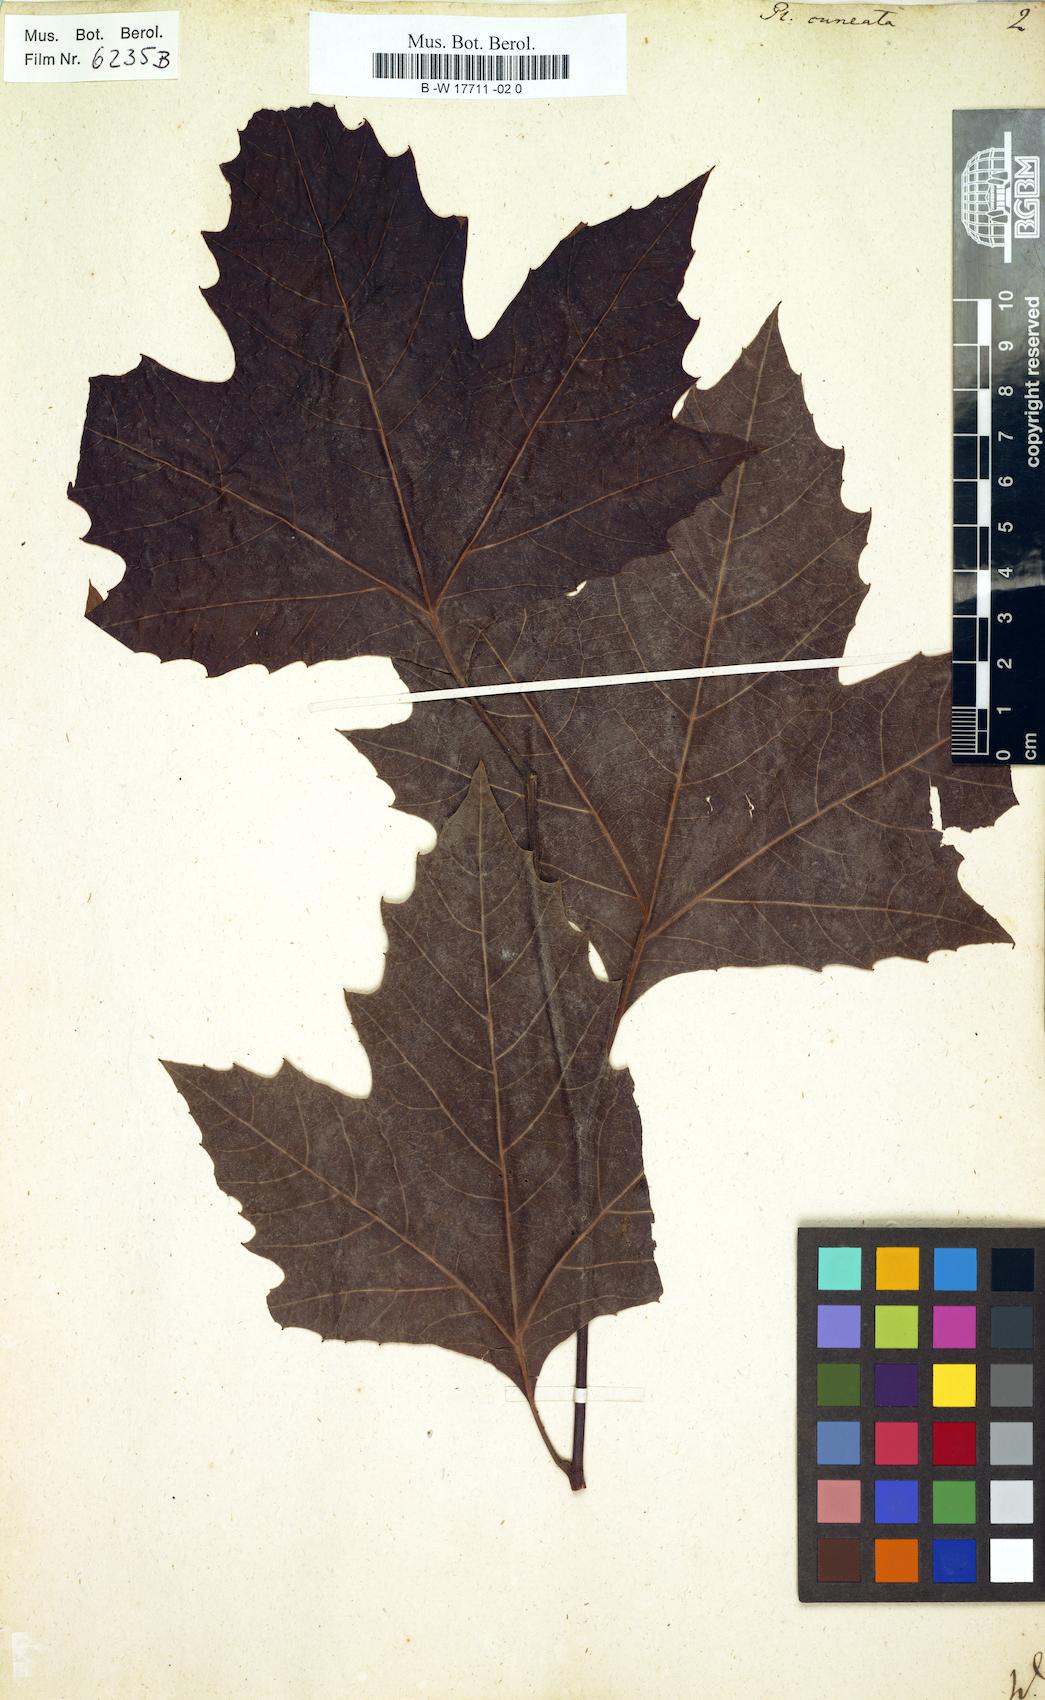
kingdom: Plantae
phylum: Tracheophyta
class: Magnoliopsida
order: Proteales
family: Platanaceae
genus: Platanus
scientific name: Platanus
